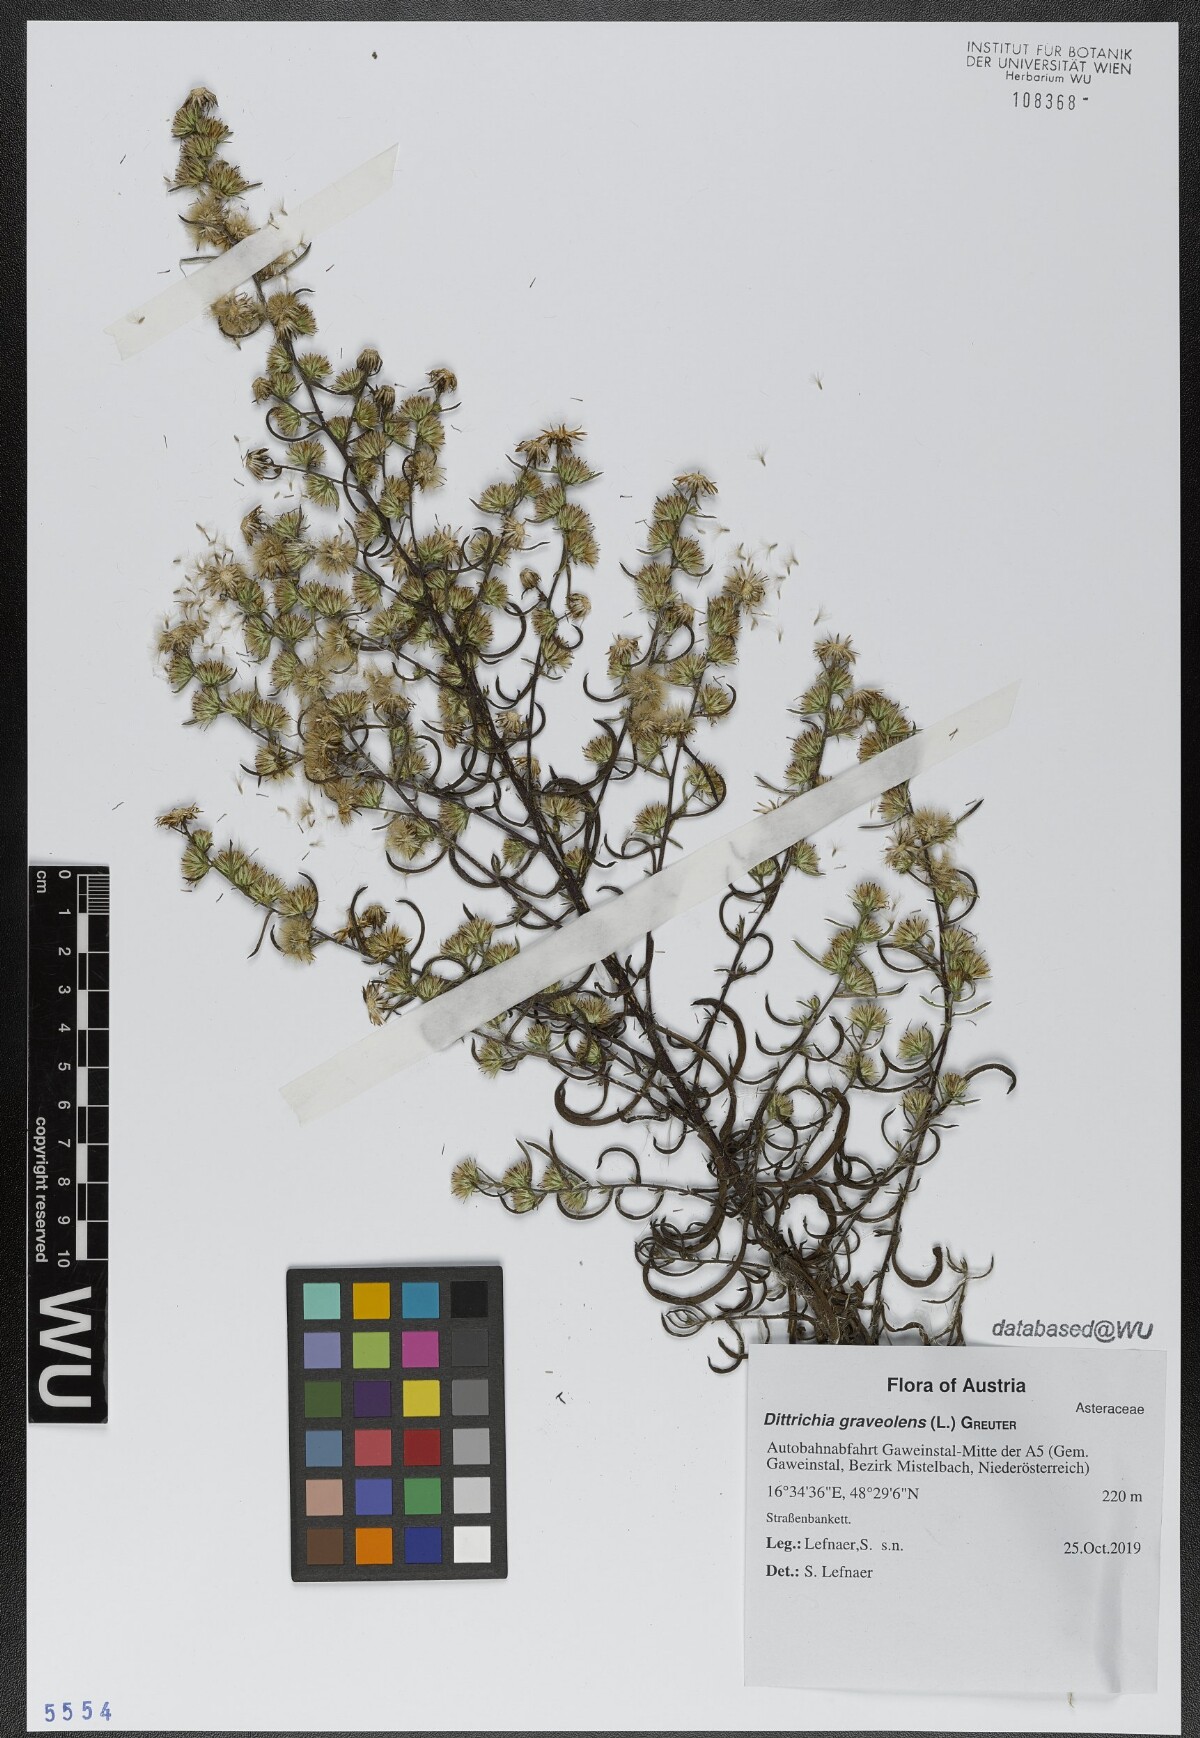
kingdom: Plantae
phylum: Tracheophyta
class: Magnoliopsida
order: Asterales
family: Asteraceae
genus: Dittrichia
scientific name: Dittrichia graveolens
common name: Stinking fleabane
